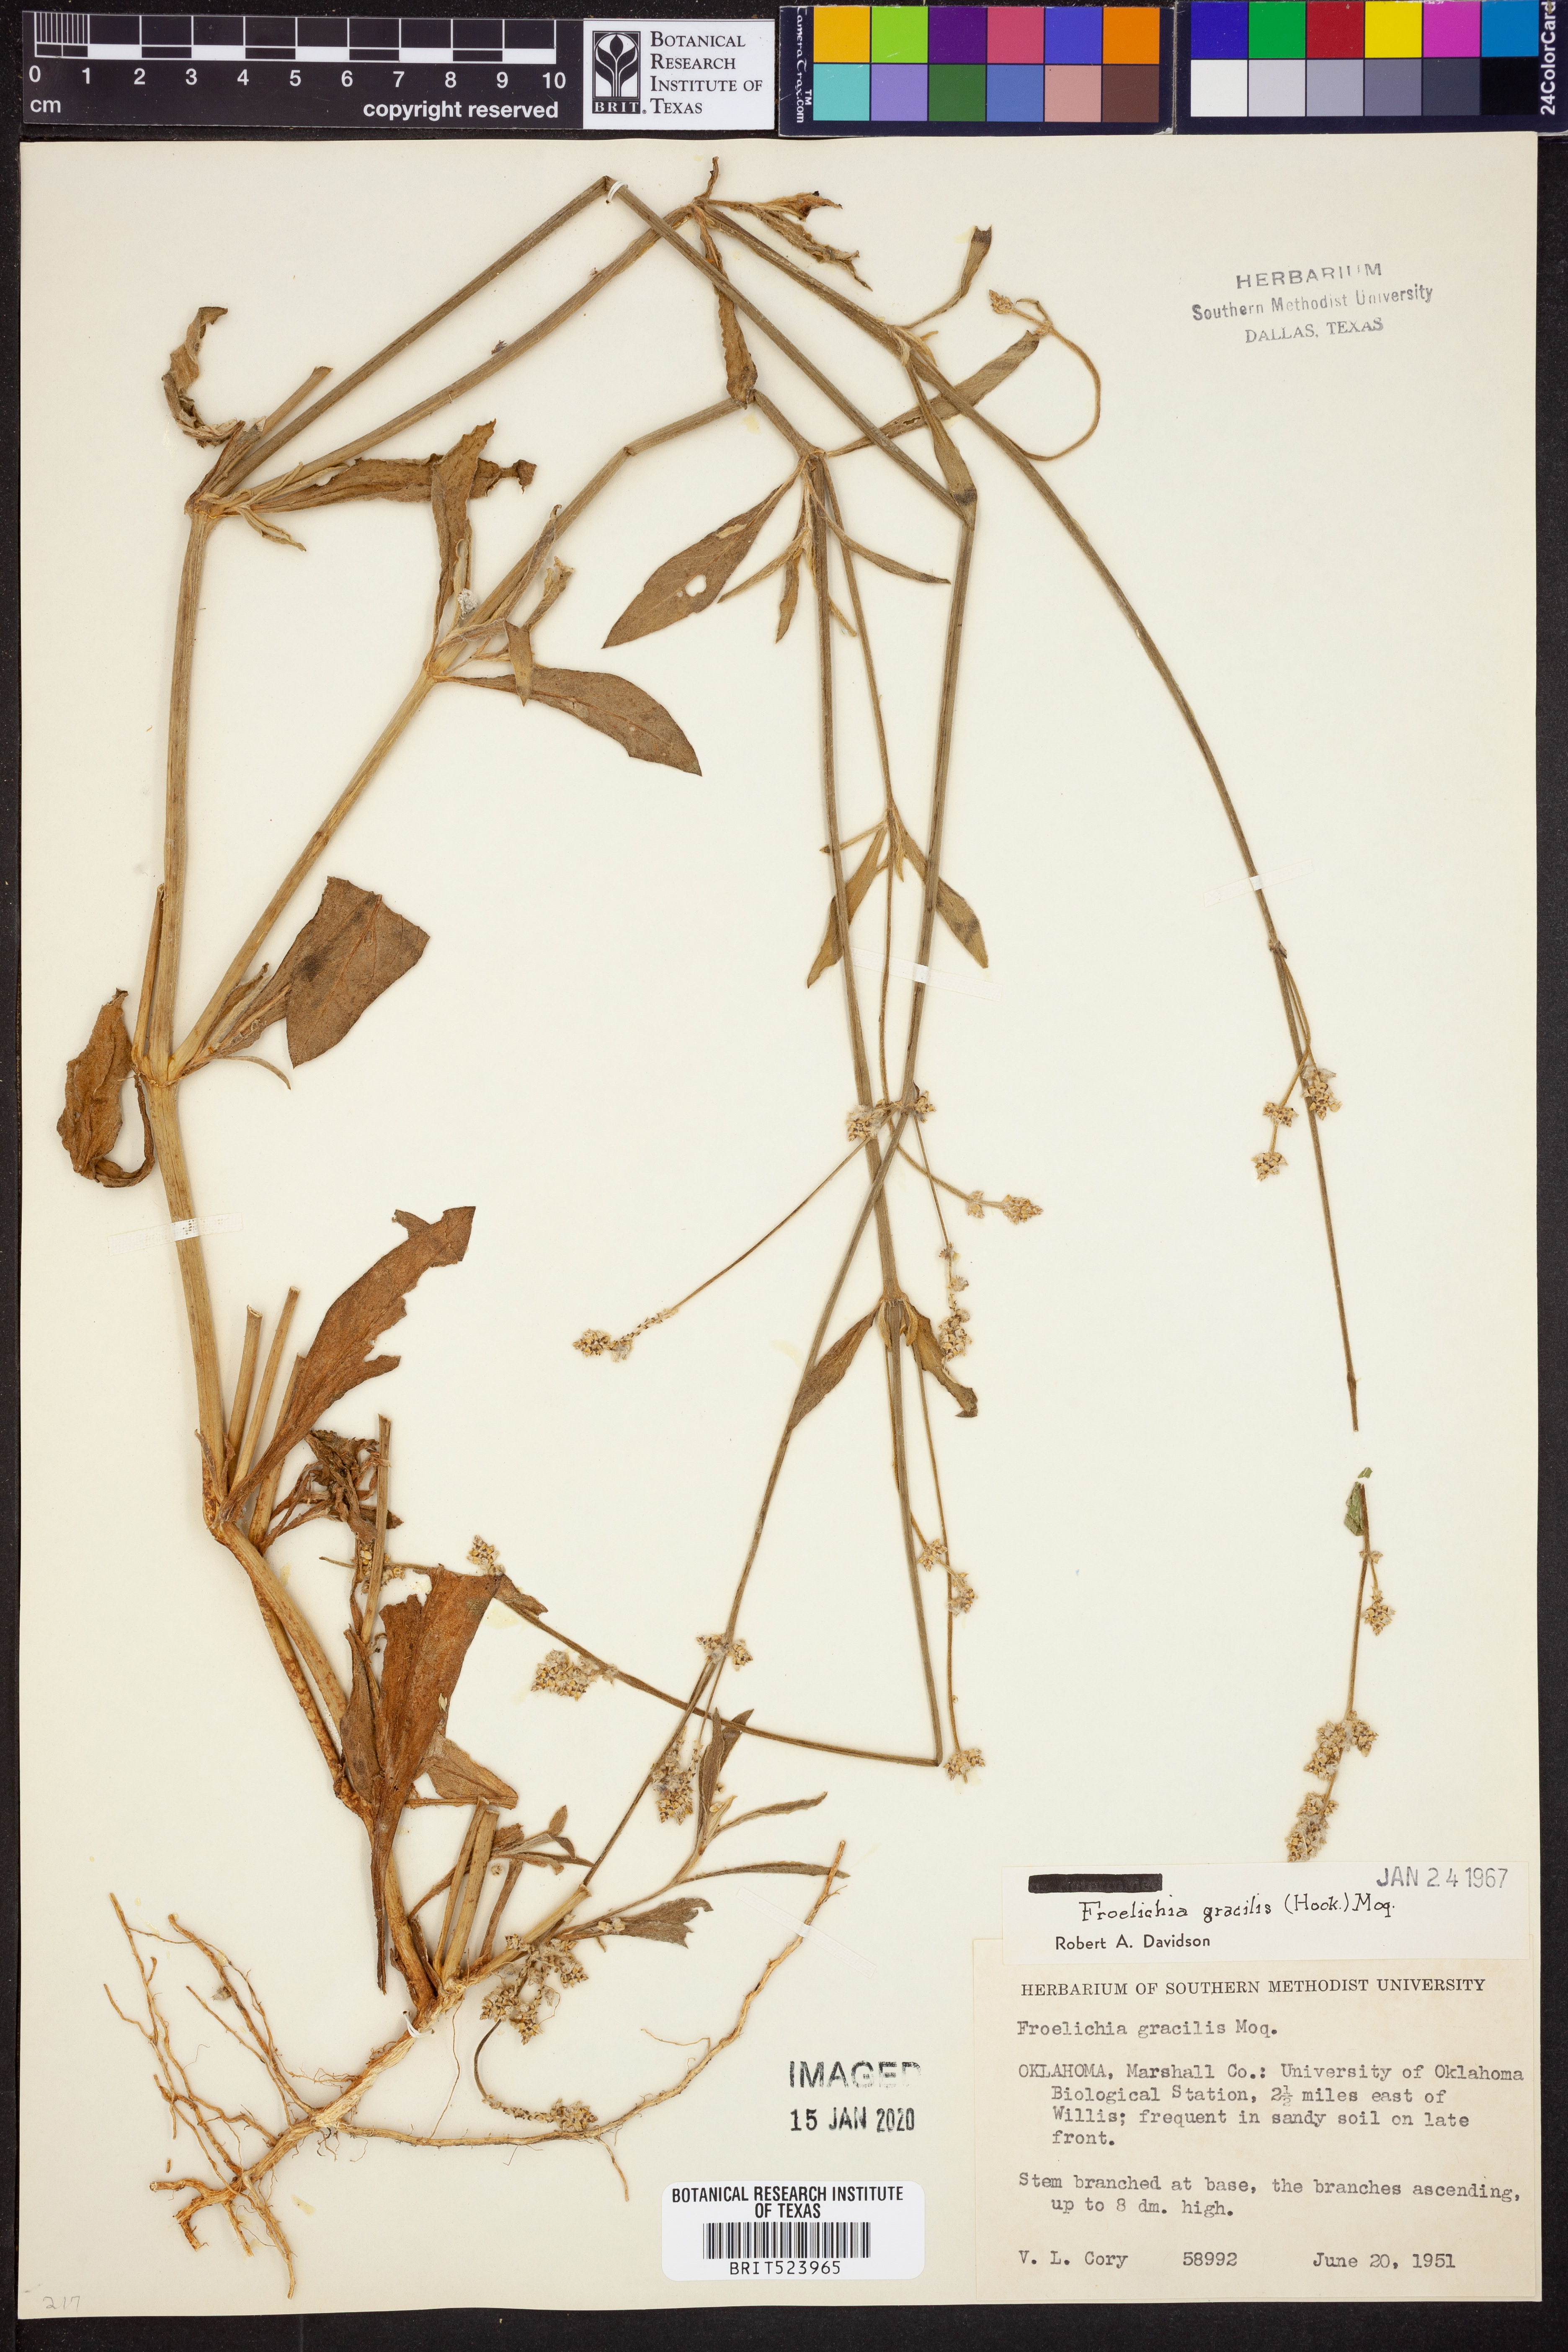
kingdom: Plantae
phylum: Tracheophyta
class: Magnoliopsida
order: Caryophyllales
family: Amaranthaceae
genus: Froelichia
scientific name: Froelichia gracilis
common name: Slender cottonweed
